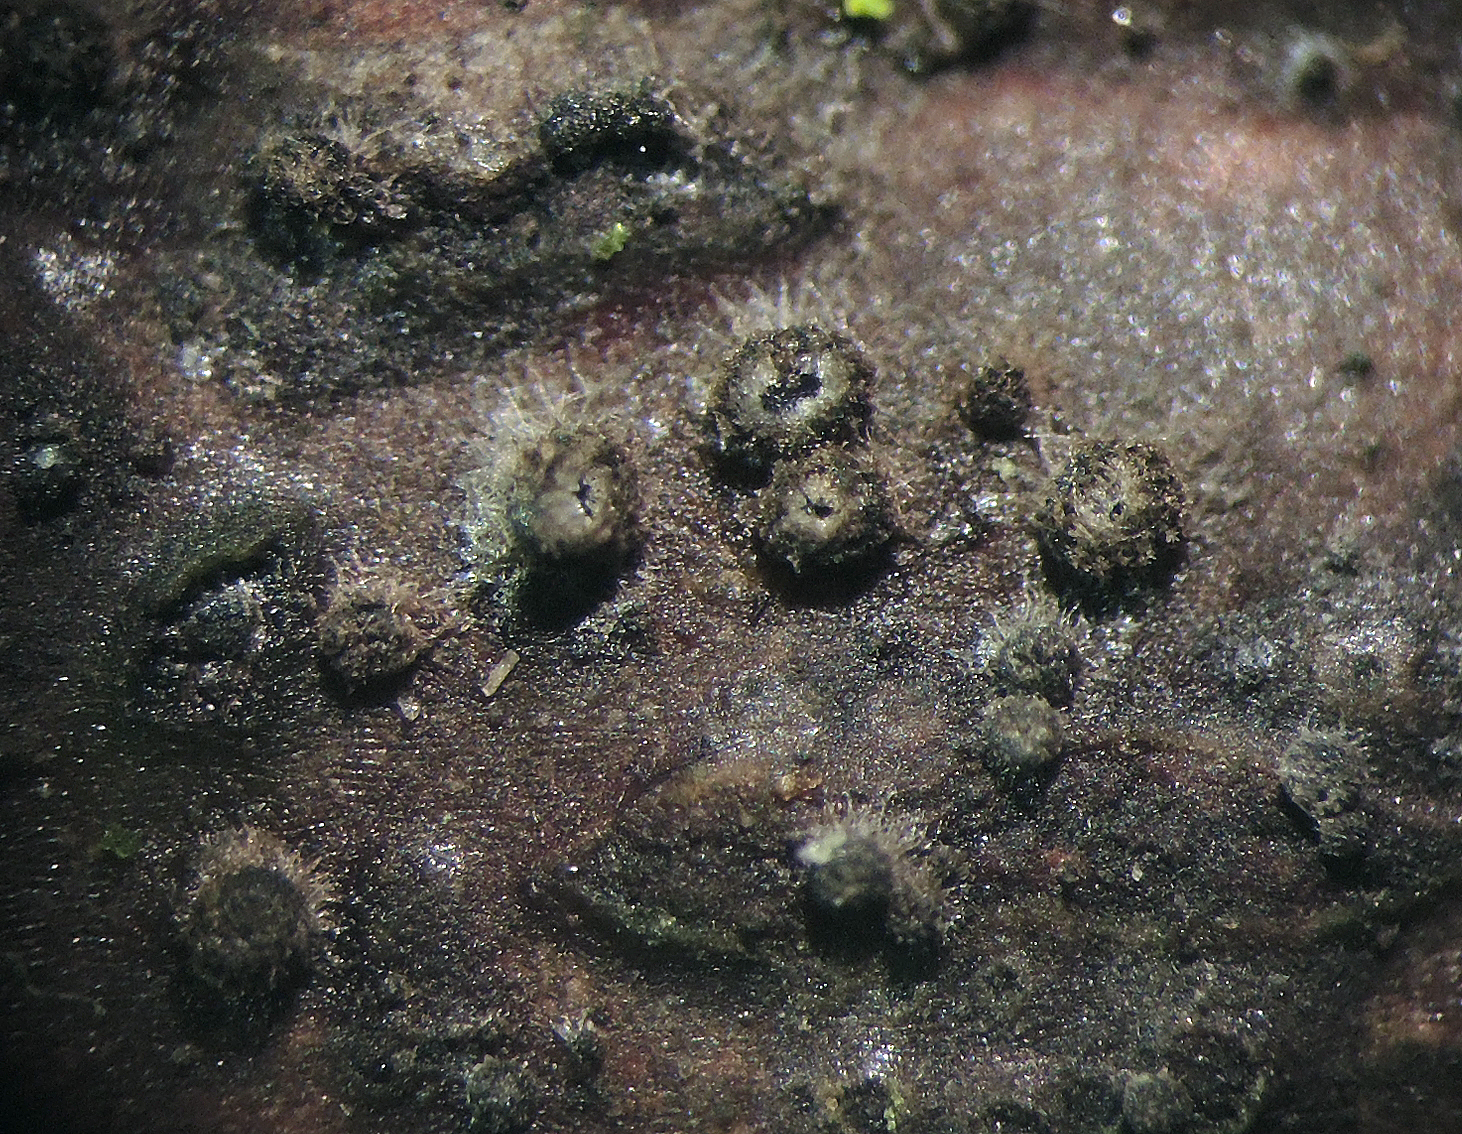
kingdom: Fungi
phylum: Ascomycota
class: Leotiomycetes
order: Helotiales
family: Mollisiaceae
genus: Mollisia
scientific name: Mollisia rosae
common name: rose-gråskive
